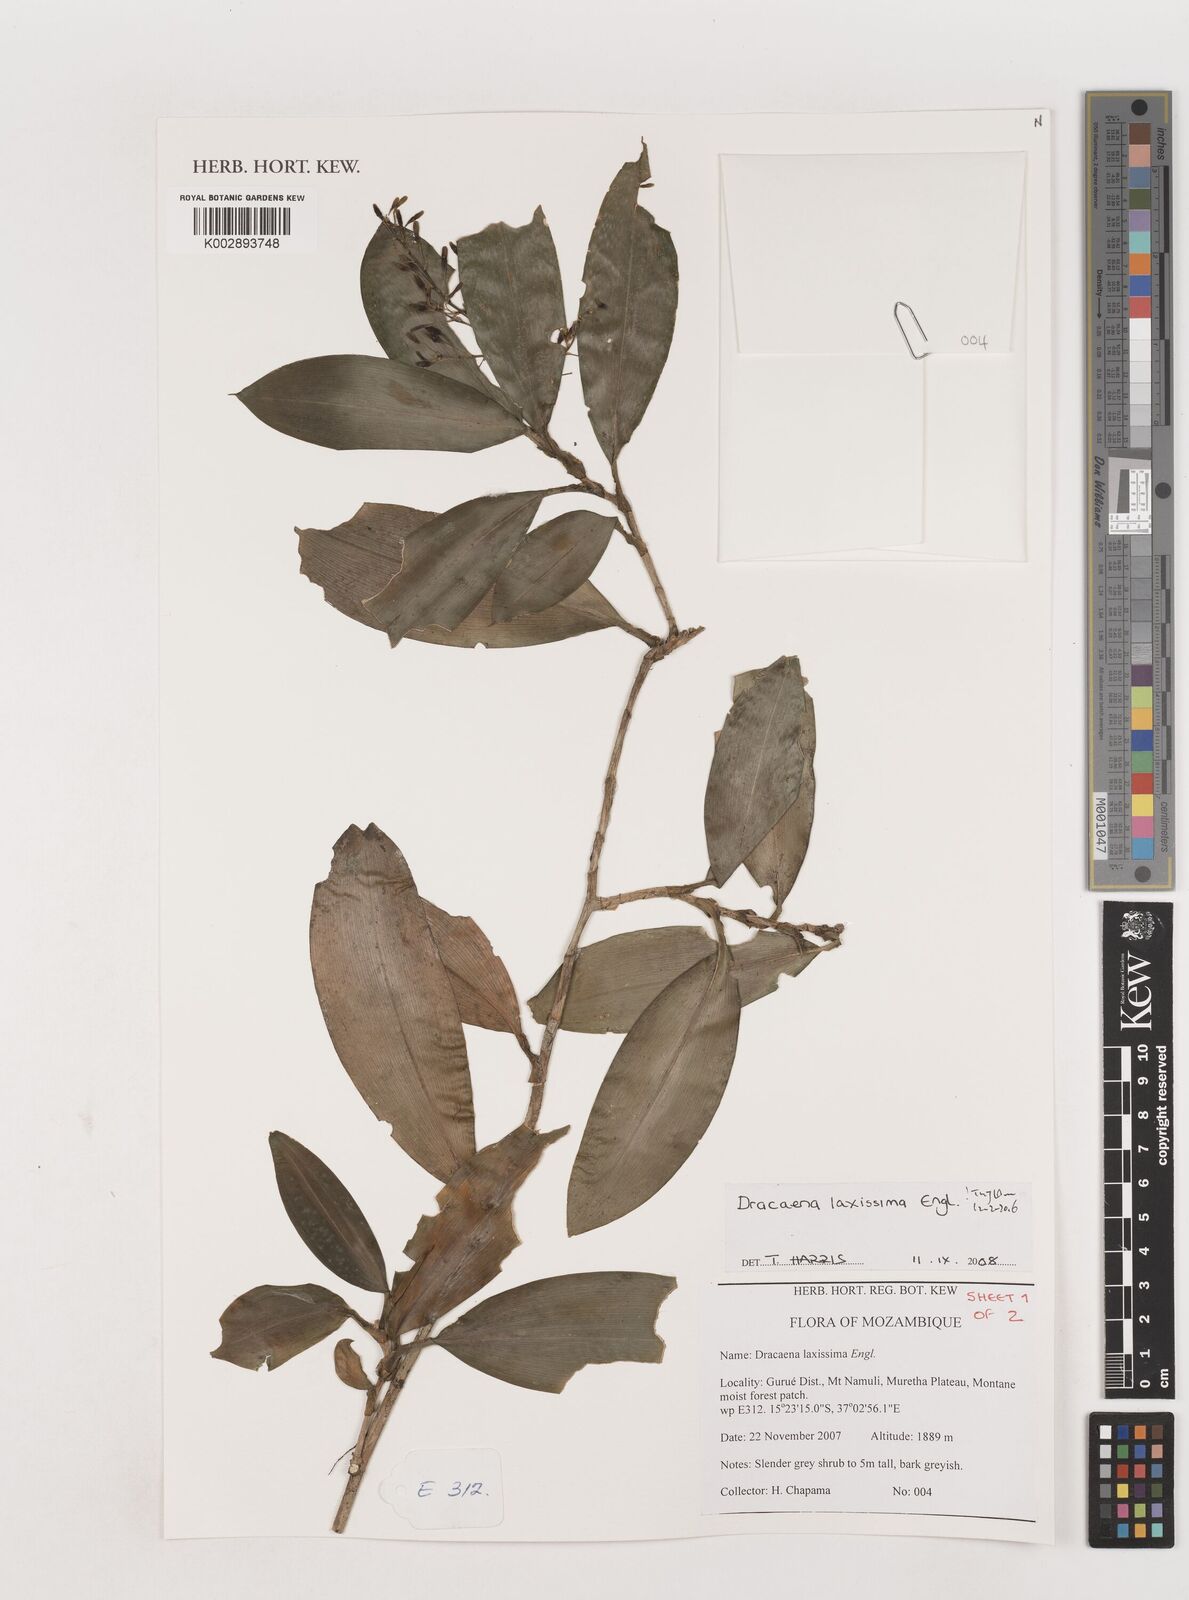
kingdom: Plantae
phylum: Tracheophyta
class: Liliopsida
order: Asparagales
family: Asparagaceae
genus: Dracaena
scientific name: Dracaena laxissima
